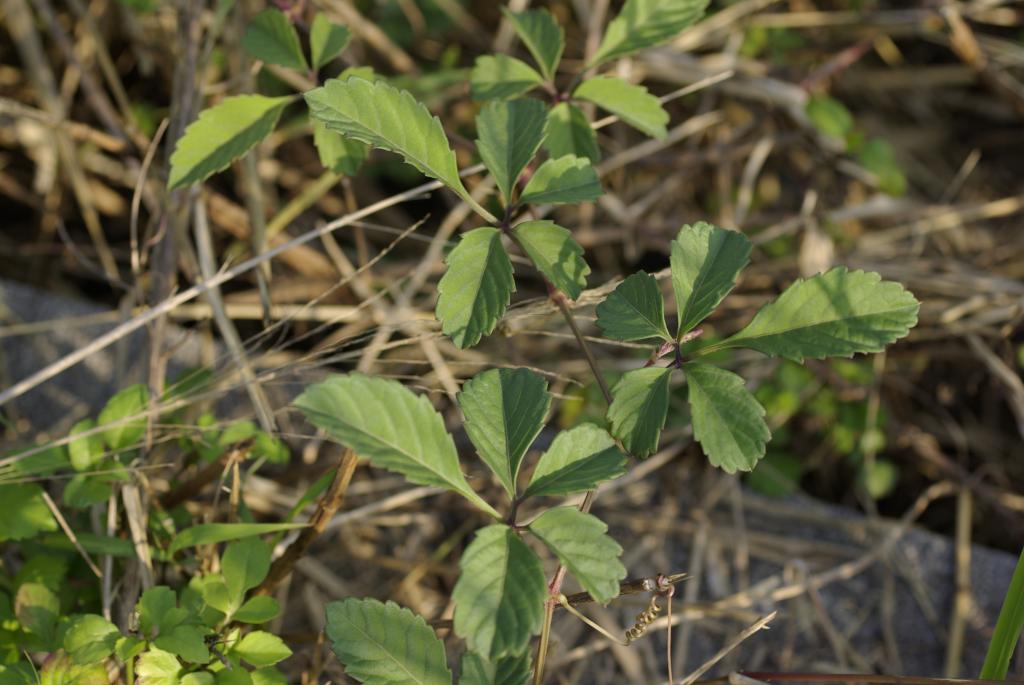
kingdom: Plantae
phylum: Tracheophyta
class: Magnoliopsida
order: Vitales
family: Vitaceae
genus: Causonis
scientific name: Causonis japonica
